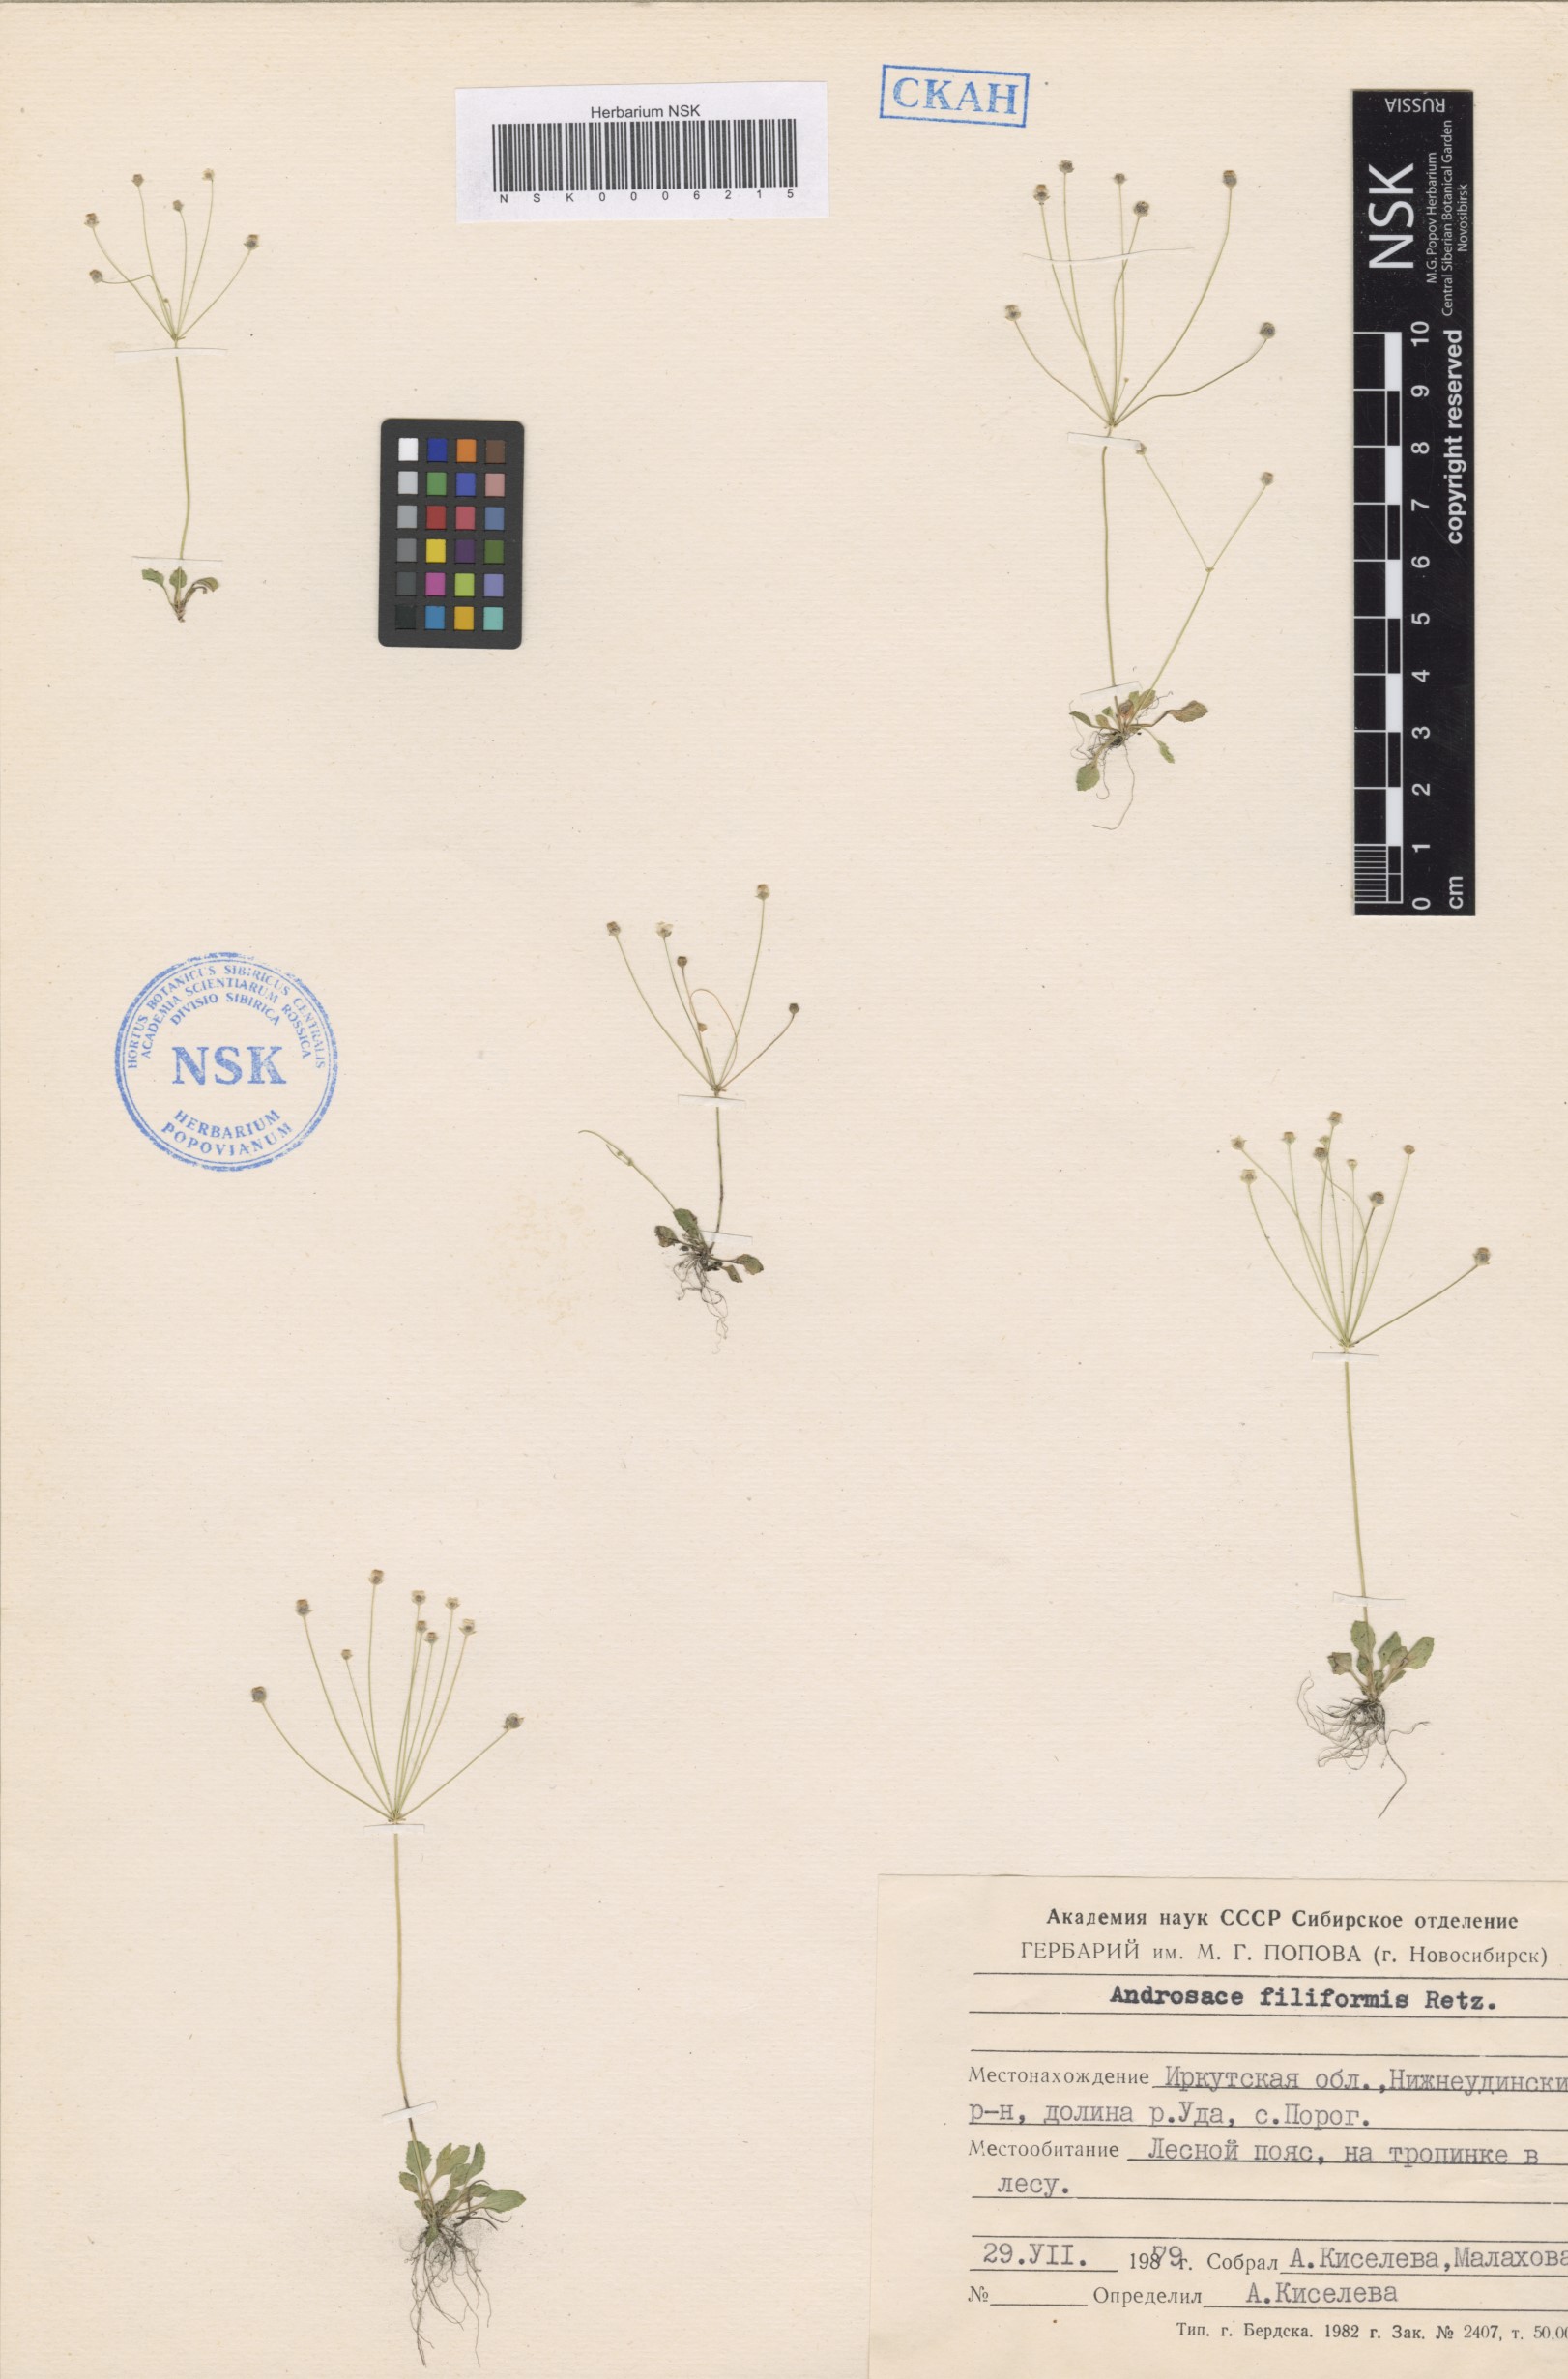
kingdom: Plantae
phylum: Tracheophyta
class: Magnoliopsida
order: Ericales
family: Primulaceae
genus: Androsace
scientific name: Androsace filiformis
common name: Filiform rock jasmine
